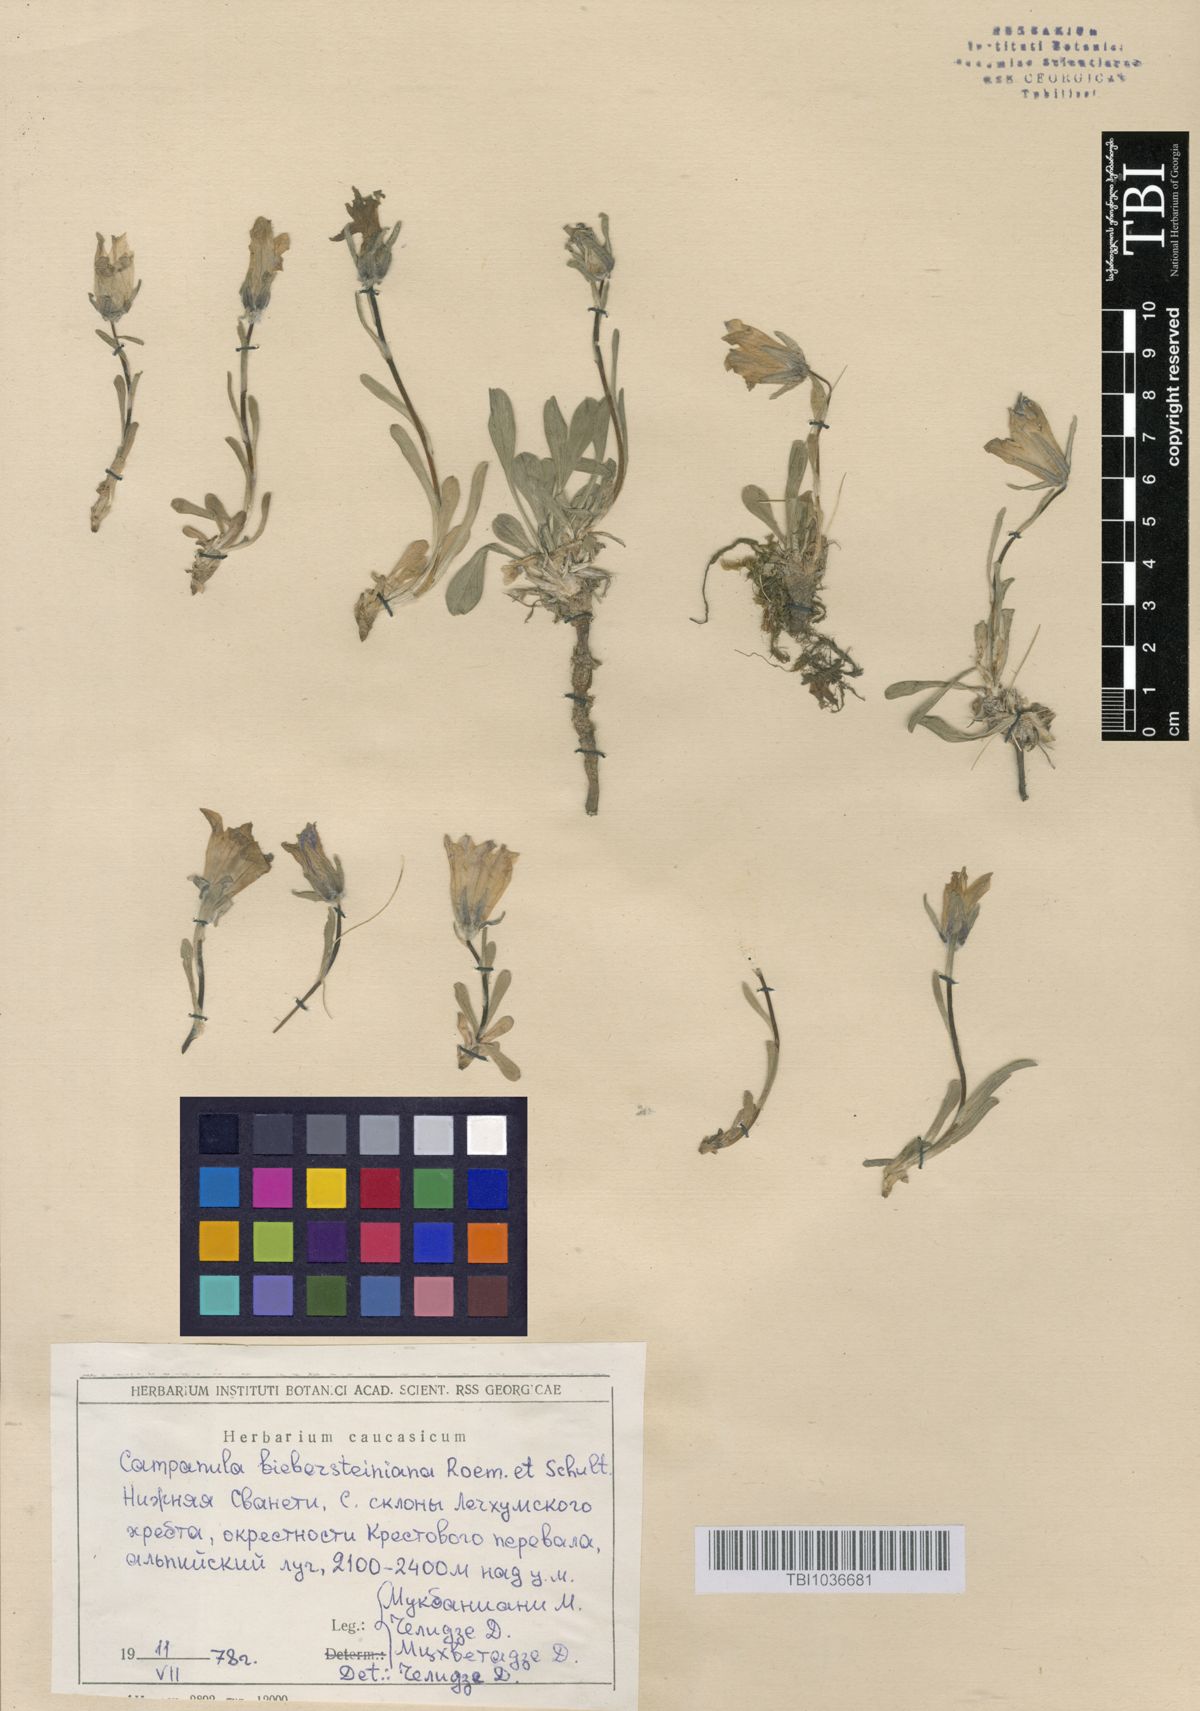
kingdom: Plantae
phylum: Tracheophyta
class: Magnoliopsida
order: Asterales
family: Campanulaceae
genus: Campanula
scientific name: Campanula tridentata
